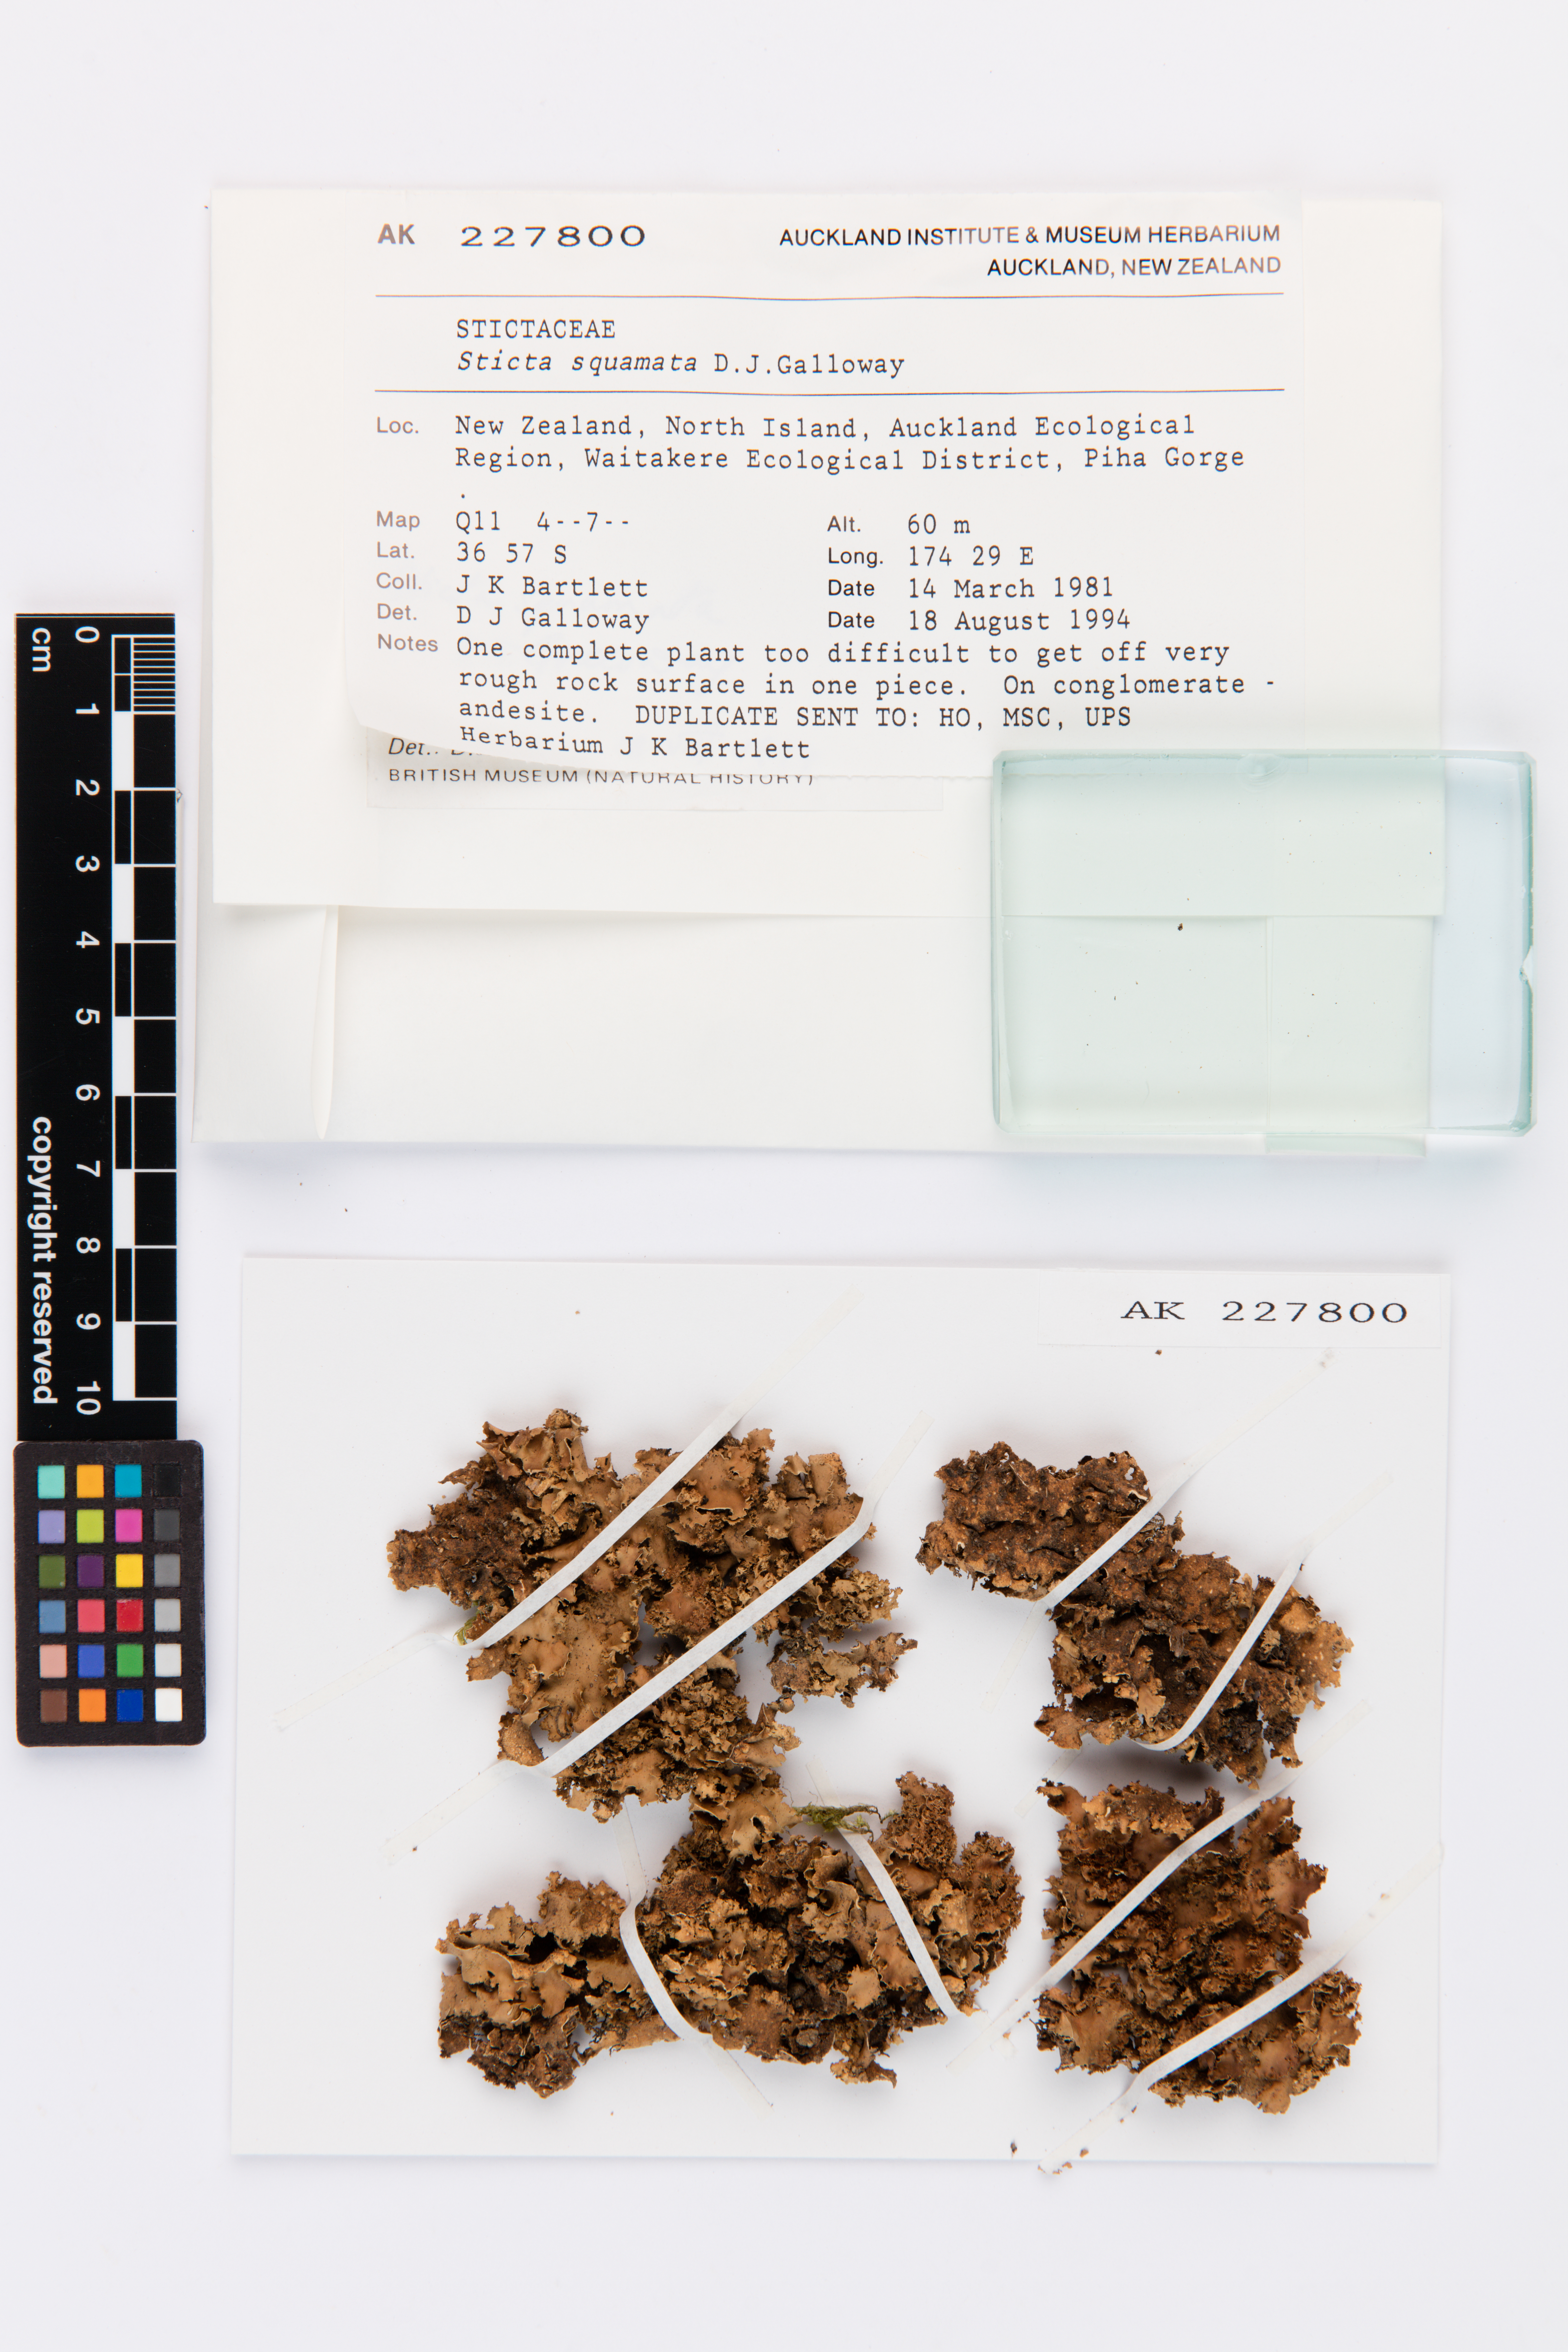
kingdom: Fungi
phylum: Ascomycota
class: Lecanoromycetes
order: Peltigerales
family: Lobariaceae
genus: Sticta
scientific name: Sticta squamata
